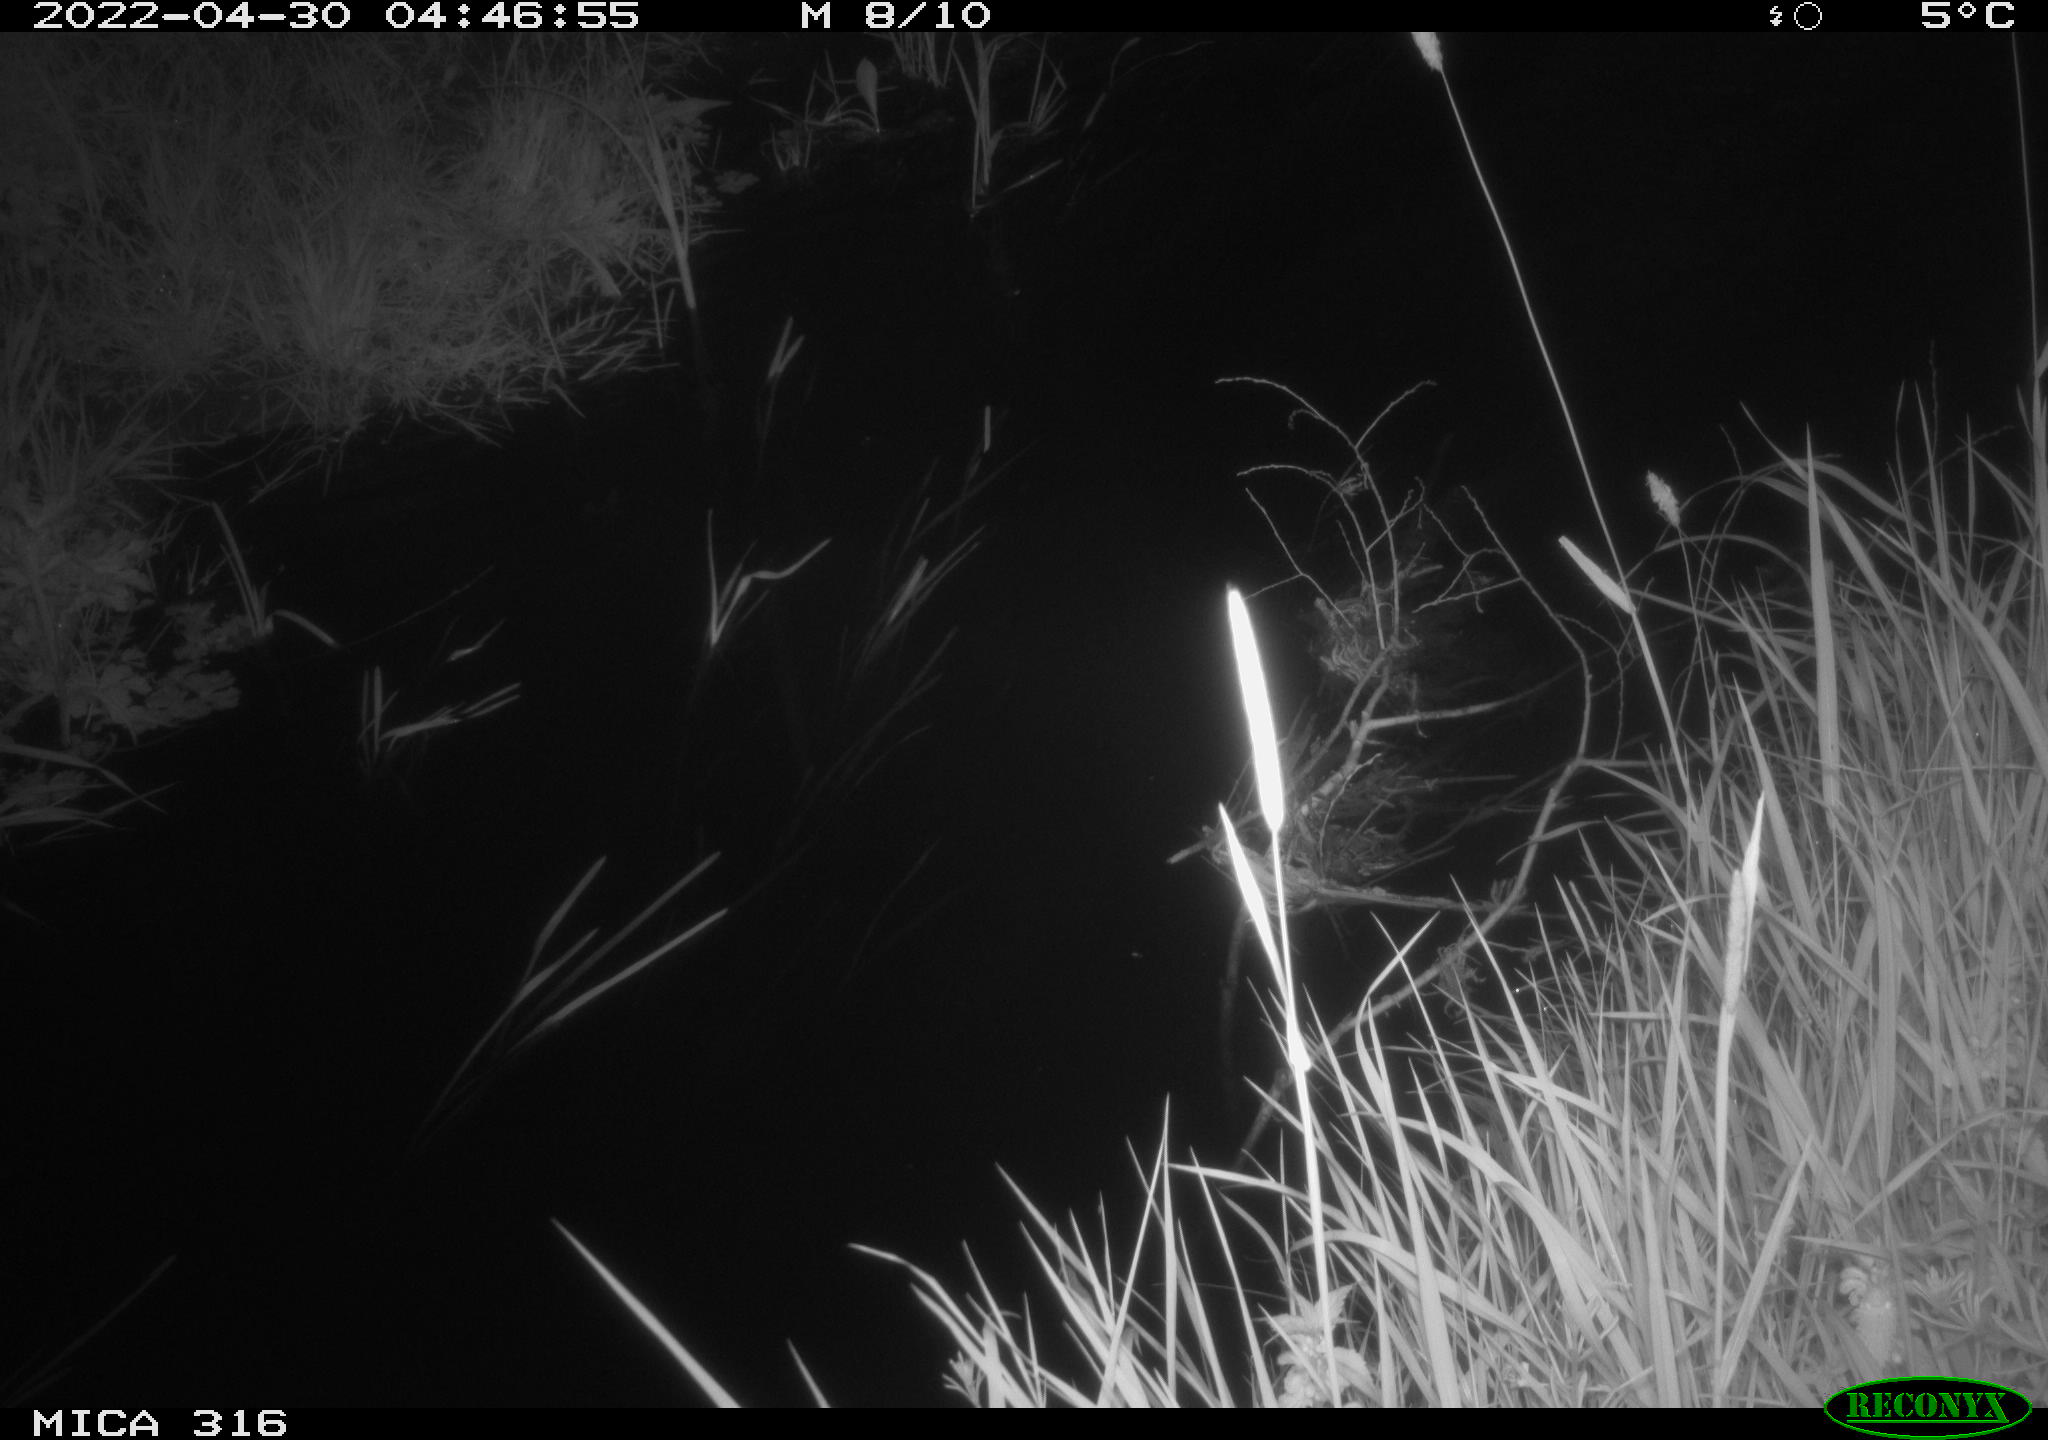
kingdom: Animalia
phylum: Chordata
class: Aves
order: Anseriformes
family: Anatidae
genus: Anas
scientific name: Anas platyrhynchos
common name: Mallard
